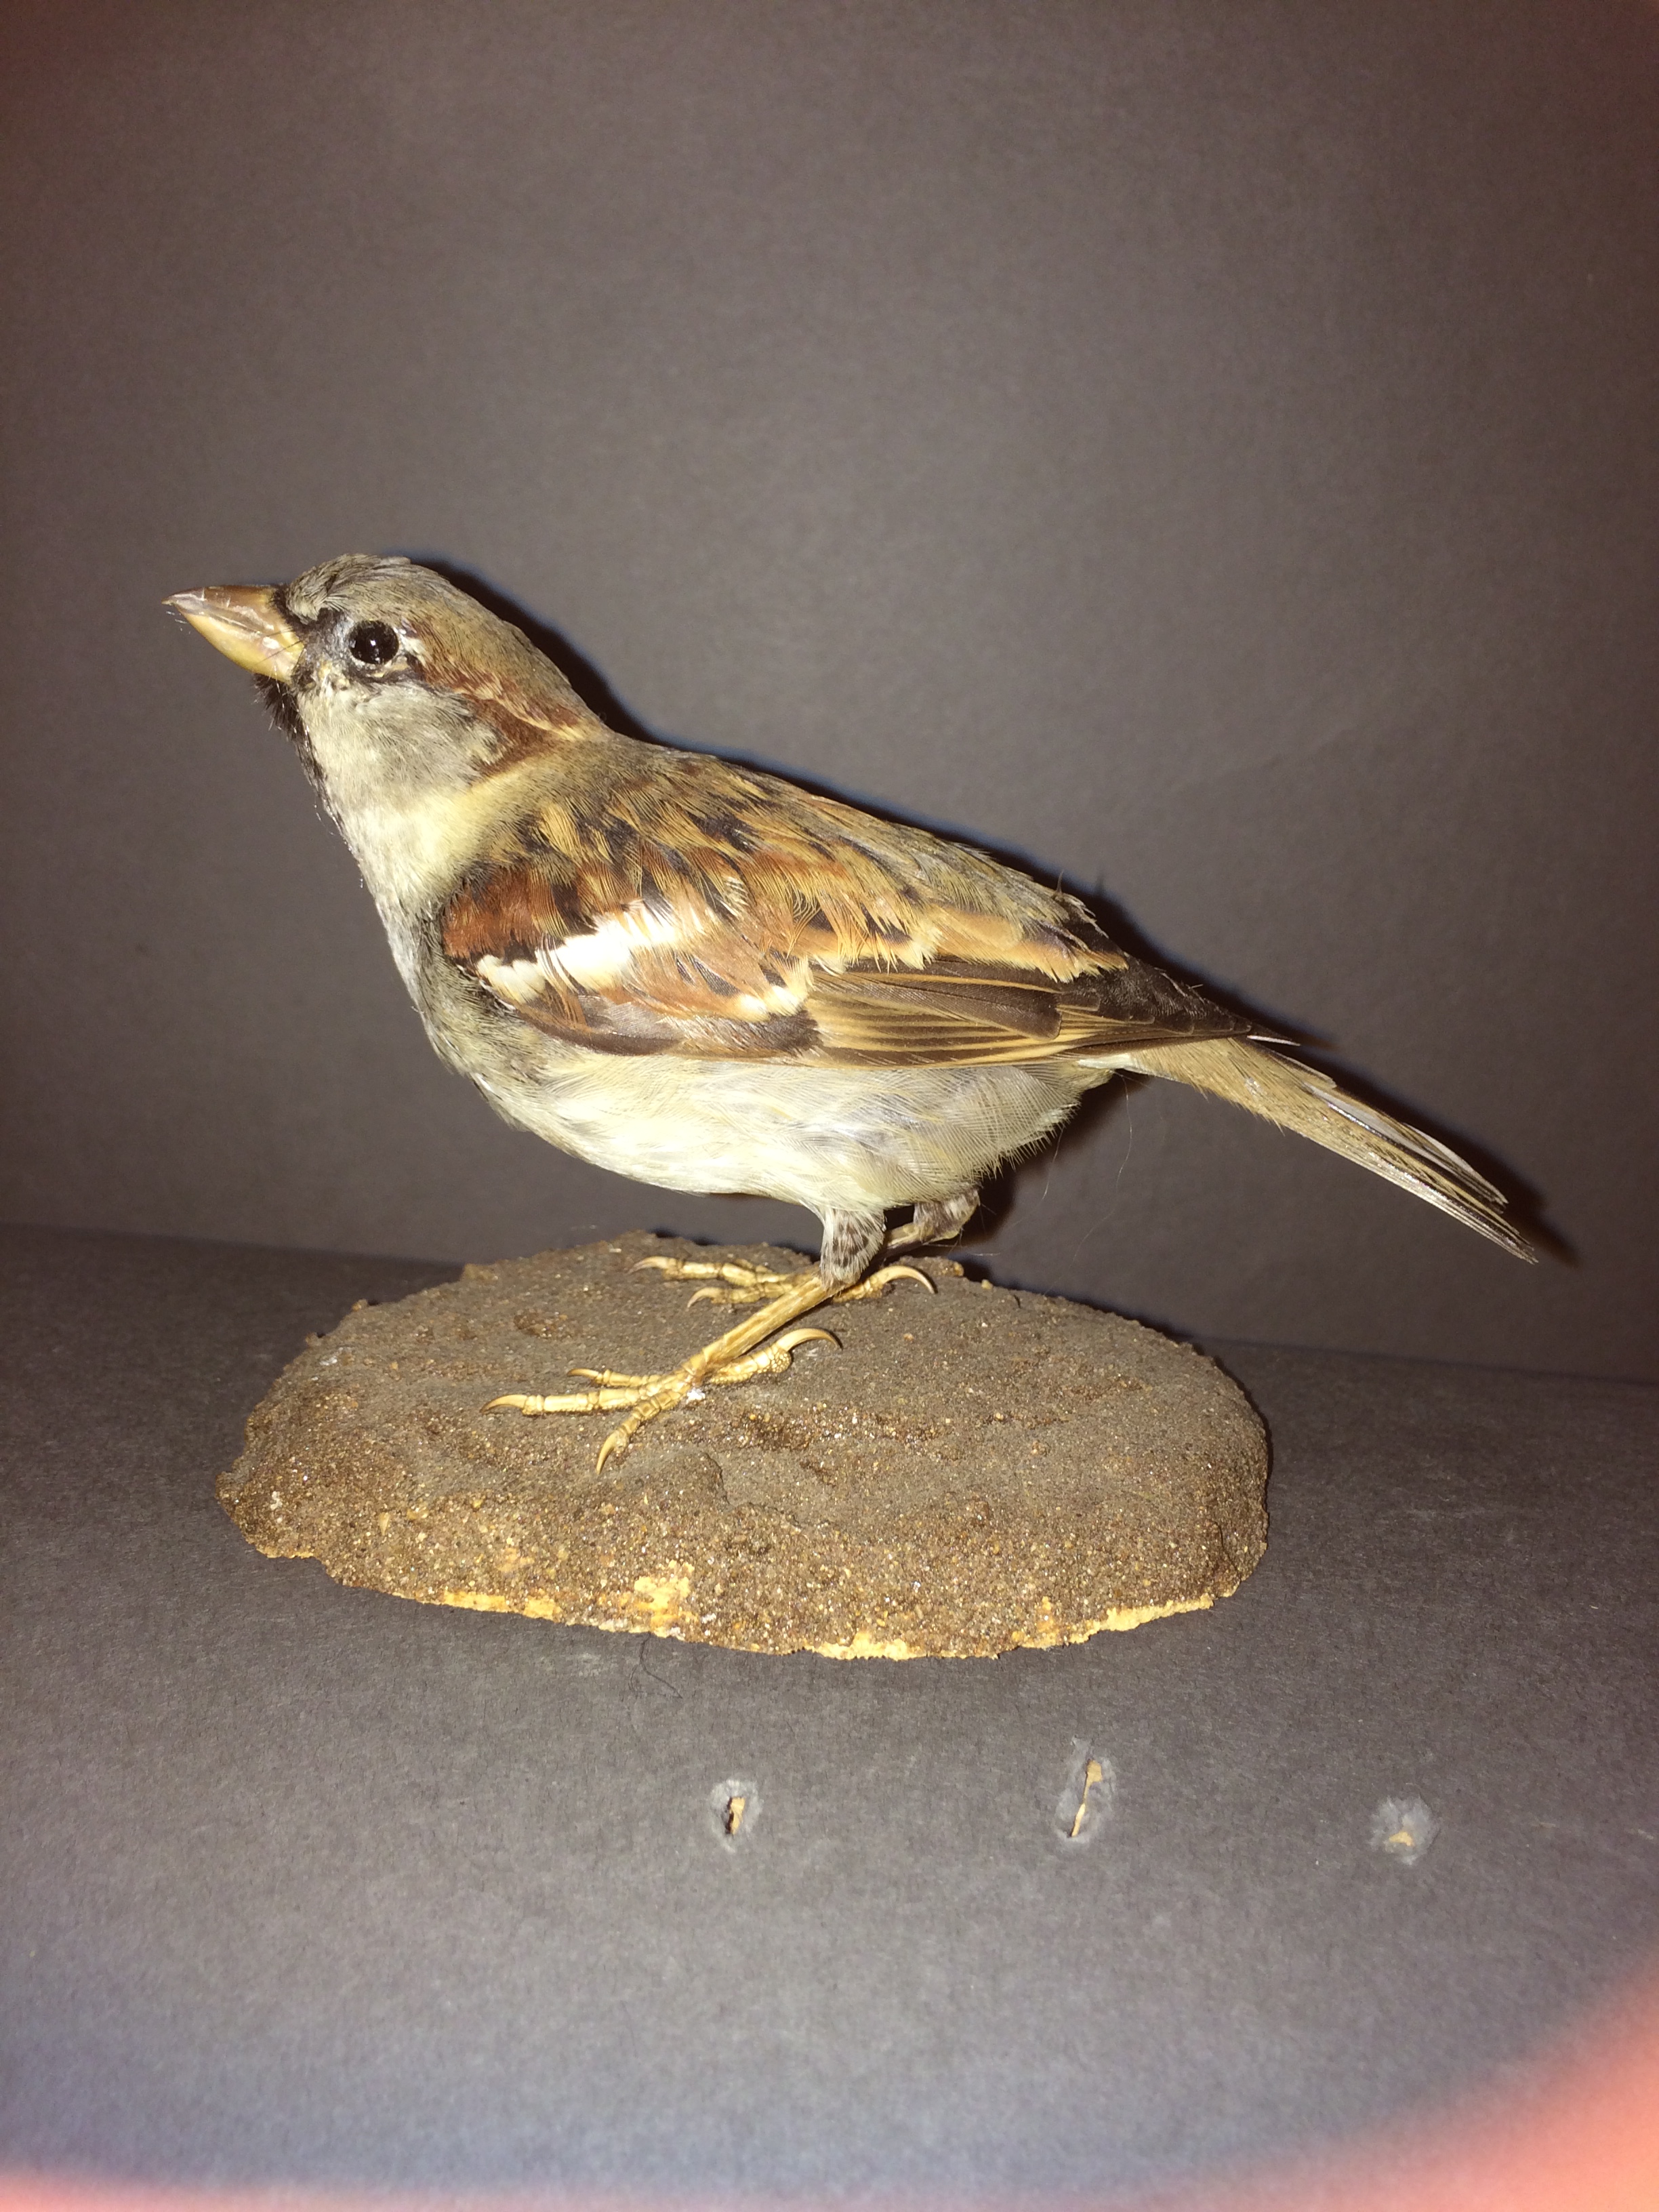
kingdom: Animalia
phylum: Chordata
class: Aves
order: Passeriformes
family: Passeridae
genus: Passer
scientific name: Passer domesticus
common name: House sparrow
